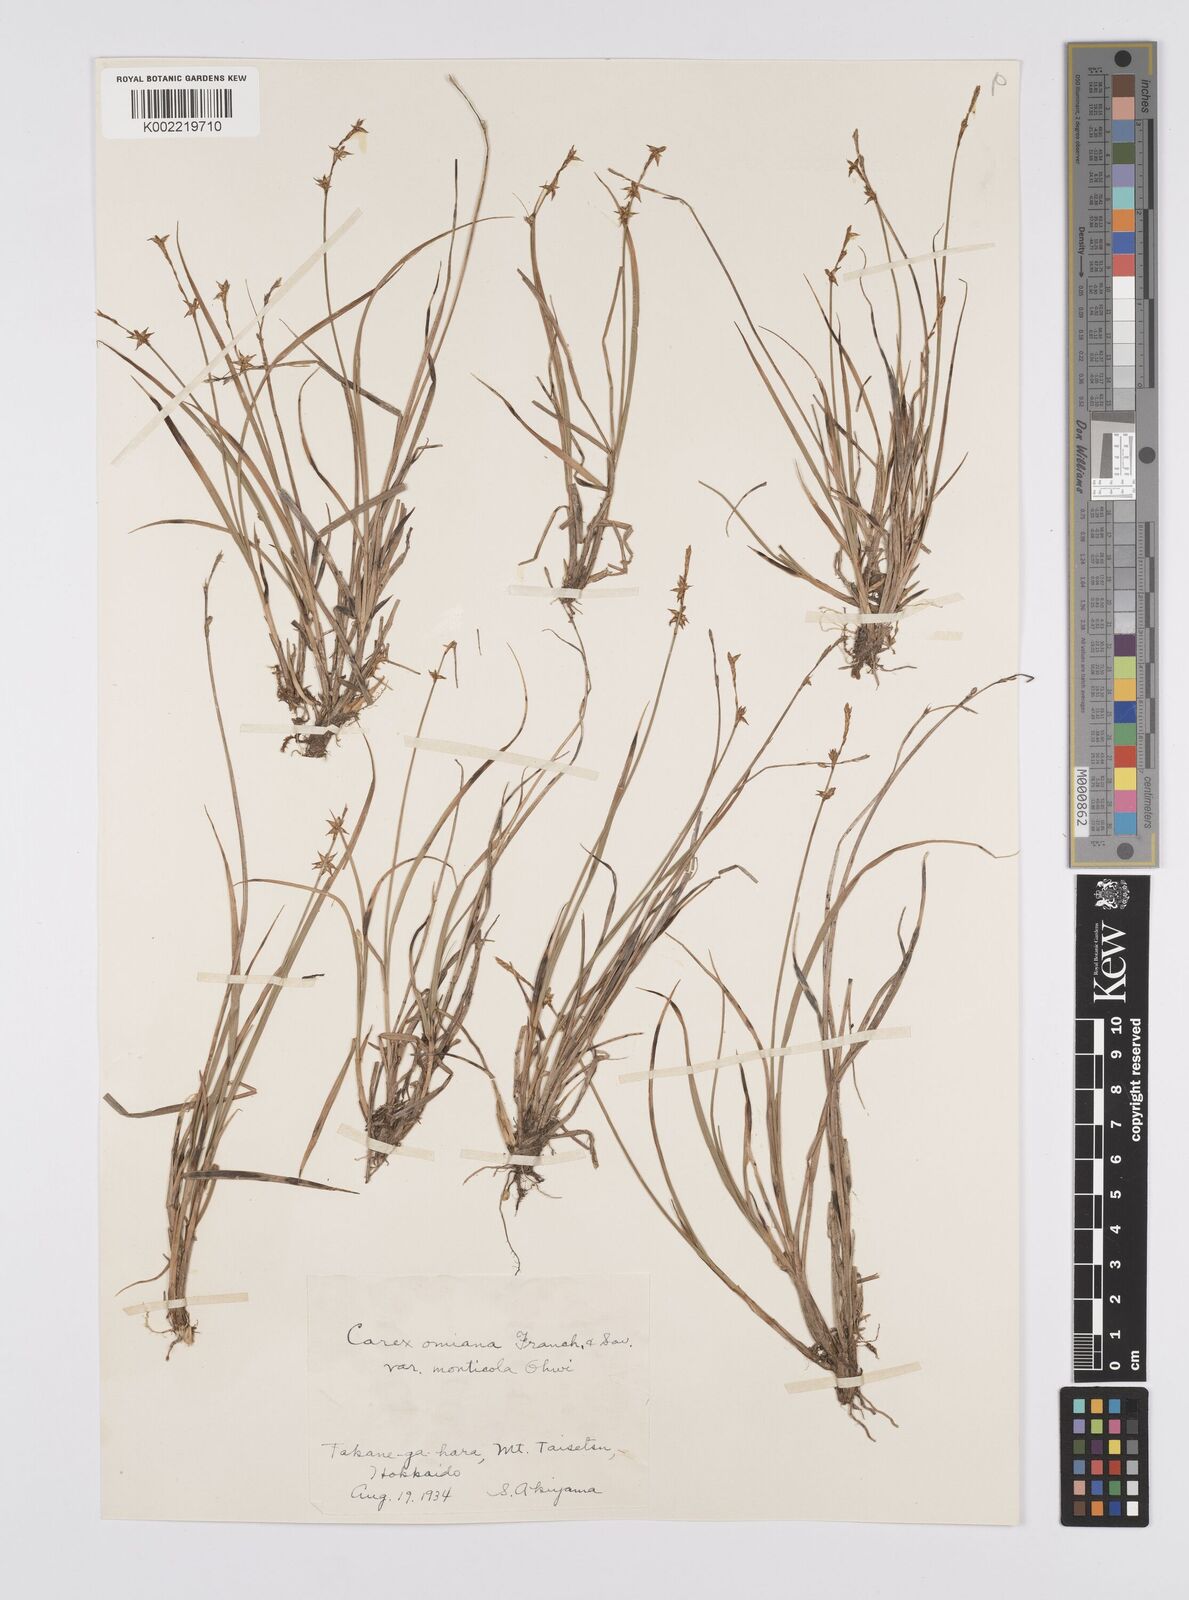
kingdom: Plantae
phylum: Tracheophyta
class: Liliopsida
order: Poales
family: Cyperaceae
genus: Carex
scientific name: Carex omiana
